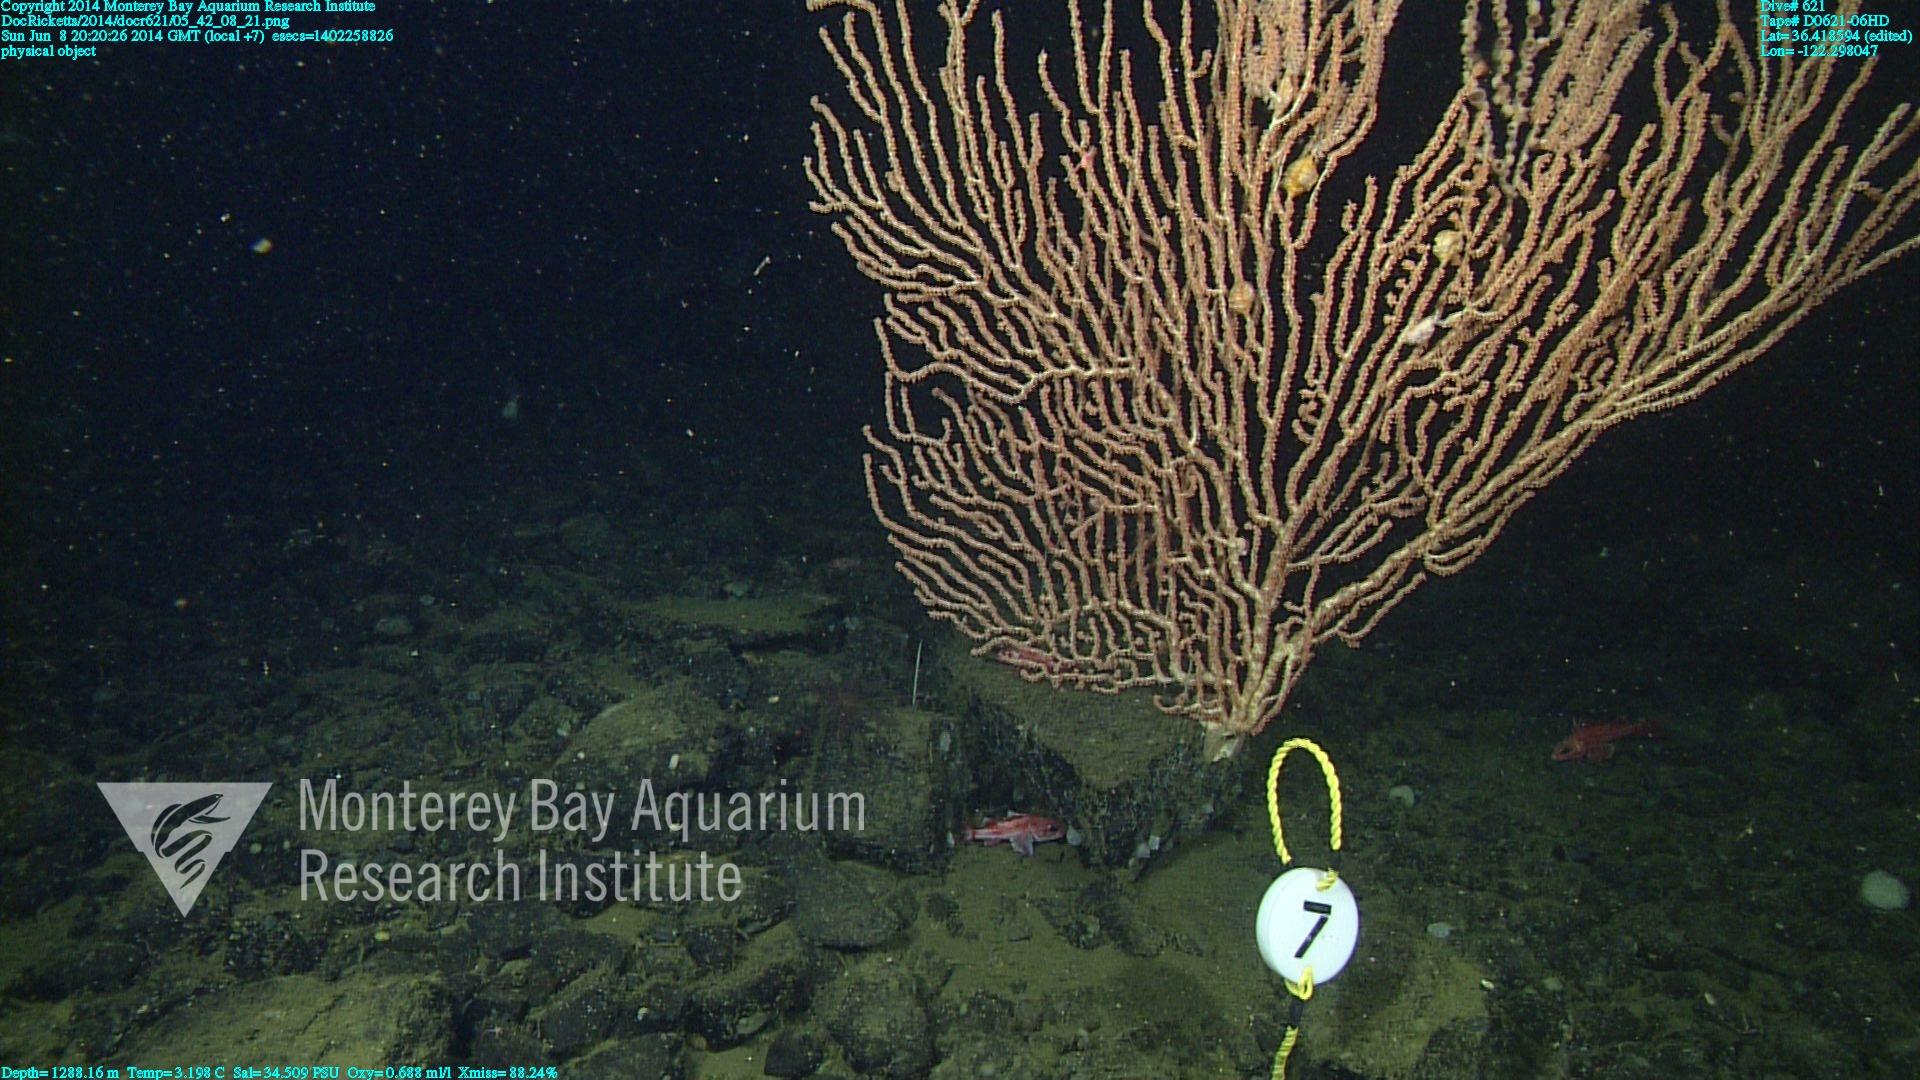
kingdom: Animalia
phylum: Cnidaria
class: Anthozoa
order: Scleralcyonacea
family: Keratoisididae
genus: Keratoisis
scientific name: Keratoisis
